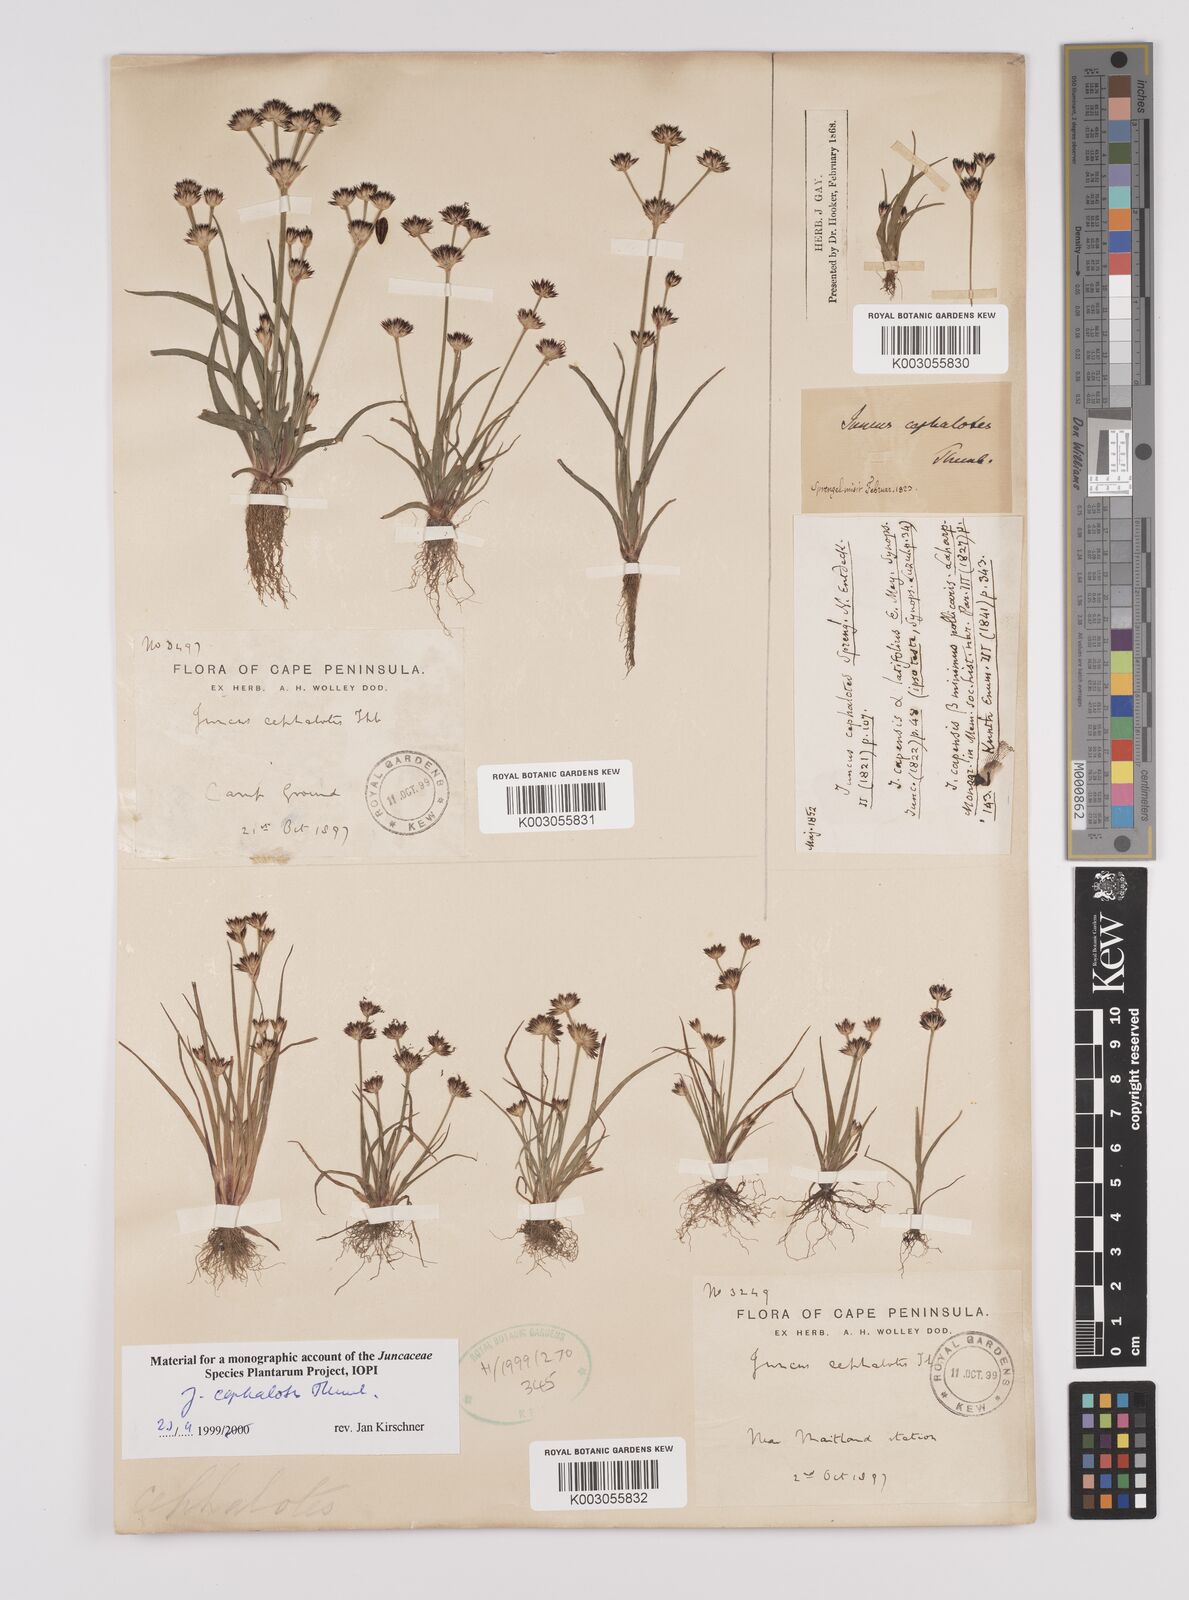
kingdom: Plantae
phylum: Tracheophyta
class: Liliopsida
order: Poales
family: Juncaceae
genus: Juncus
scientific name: Juncus cephalotes
